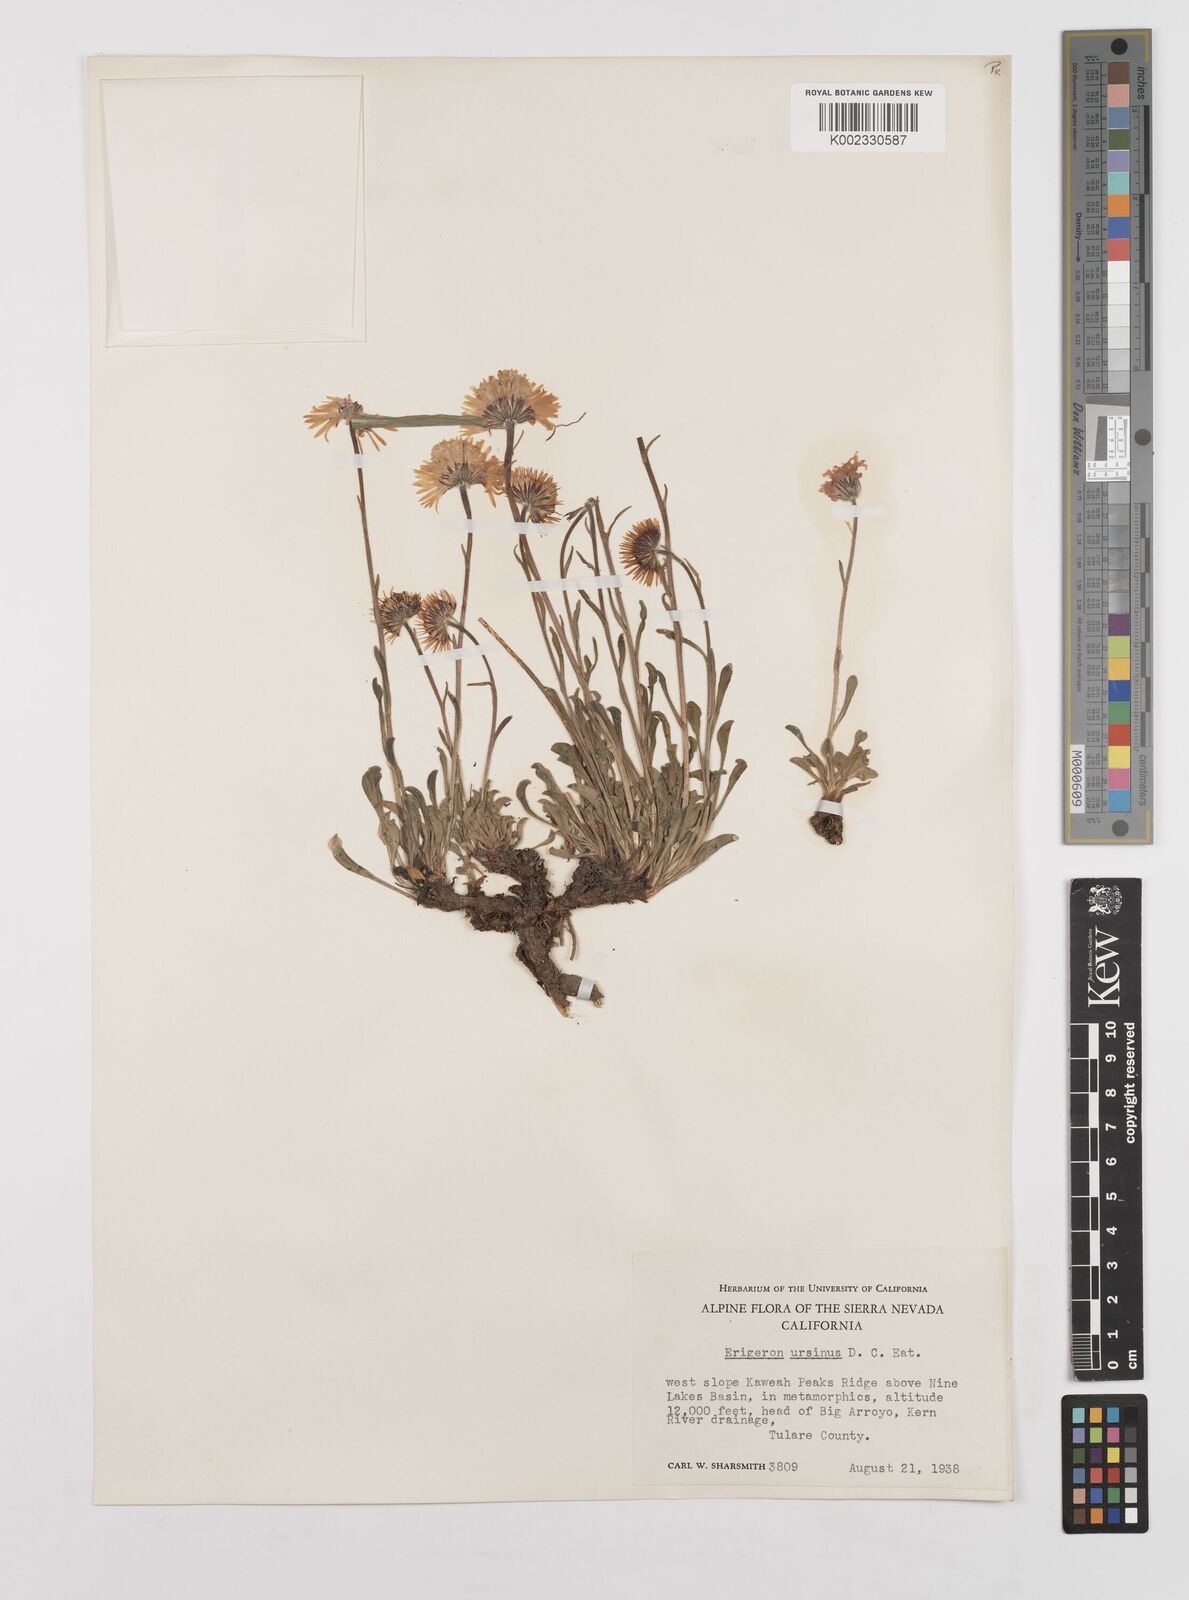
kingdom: Plantae
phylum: Tracheophyta
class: Magnoliopsida
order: Asterales
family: Asteraceae
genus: Erigeron
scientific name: Erigeron ursinus
